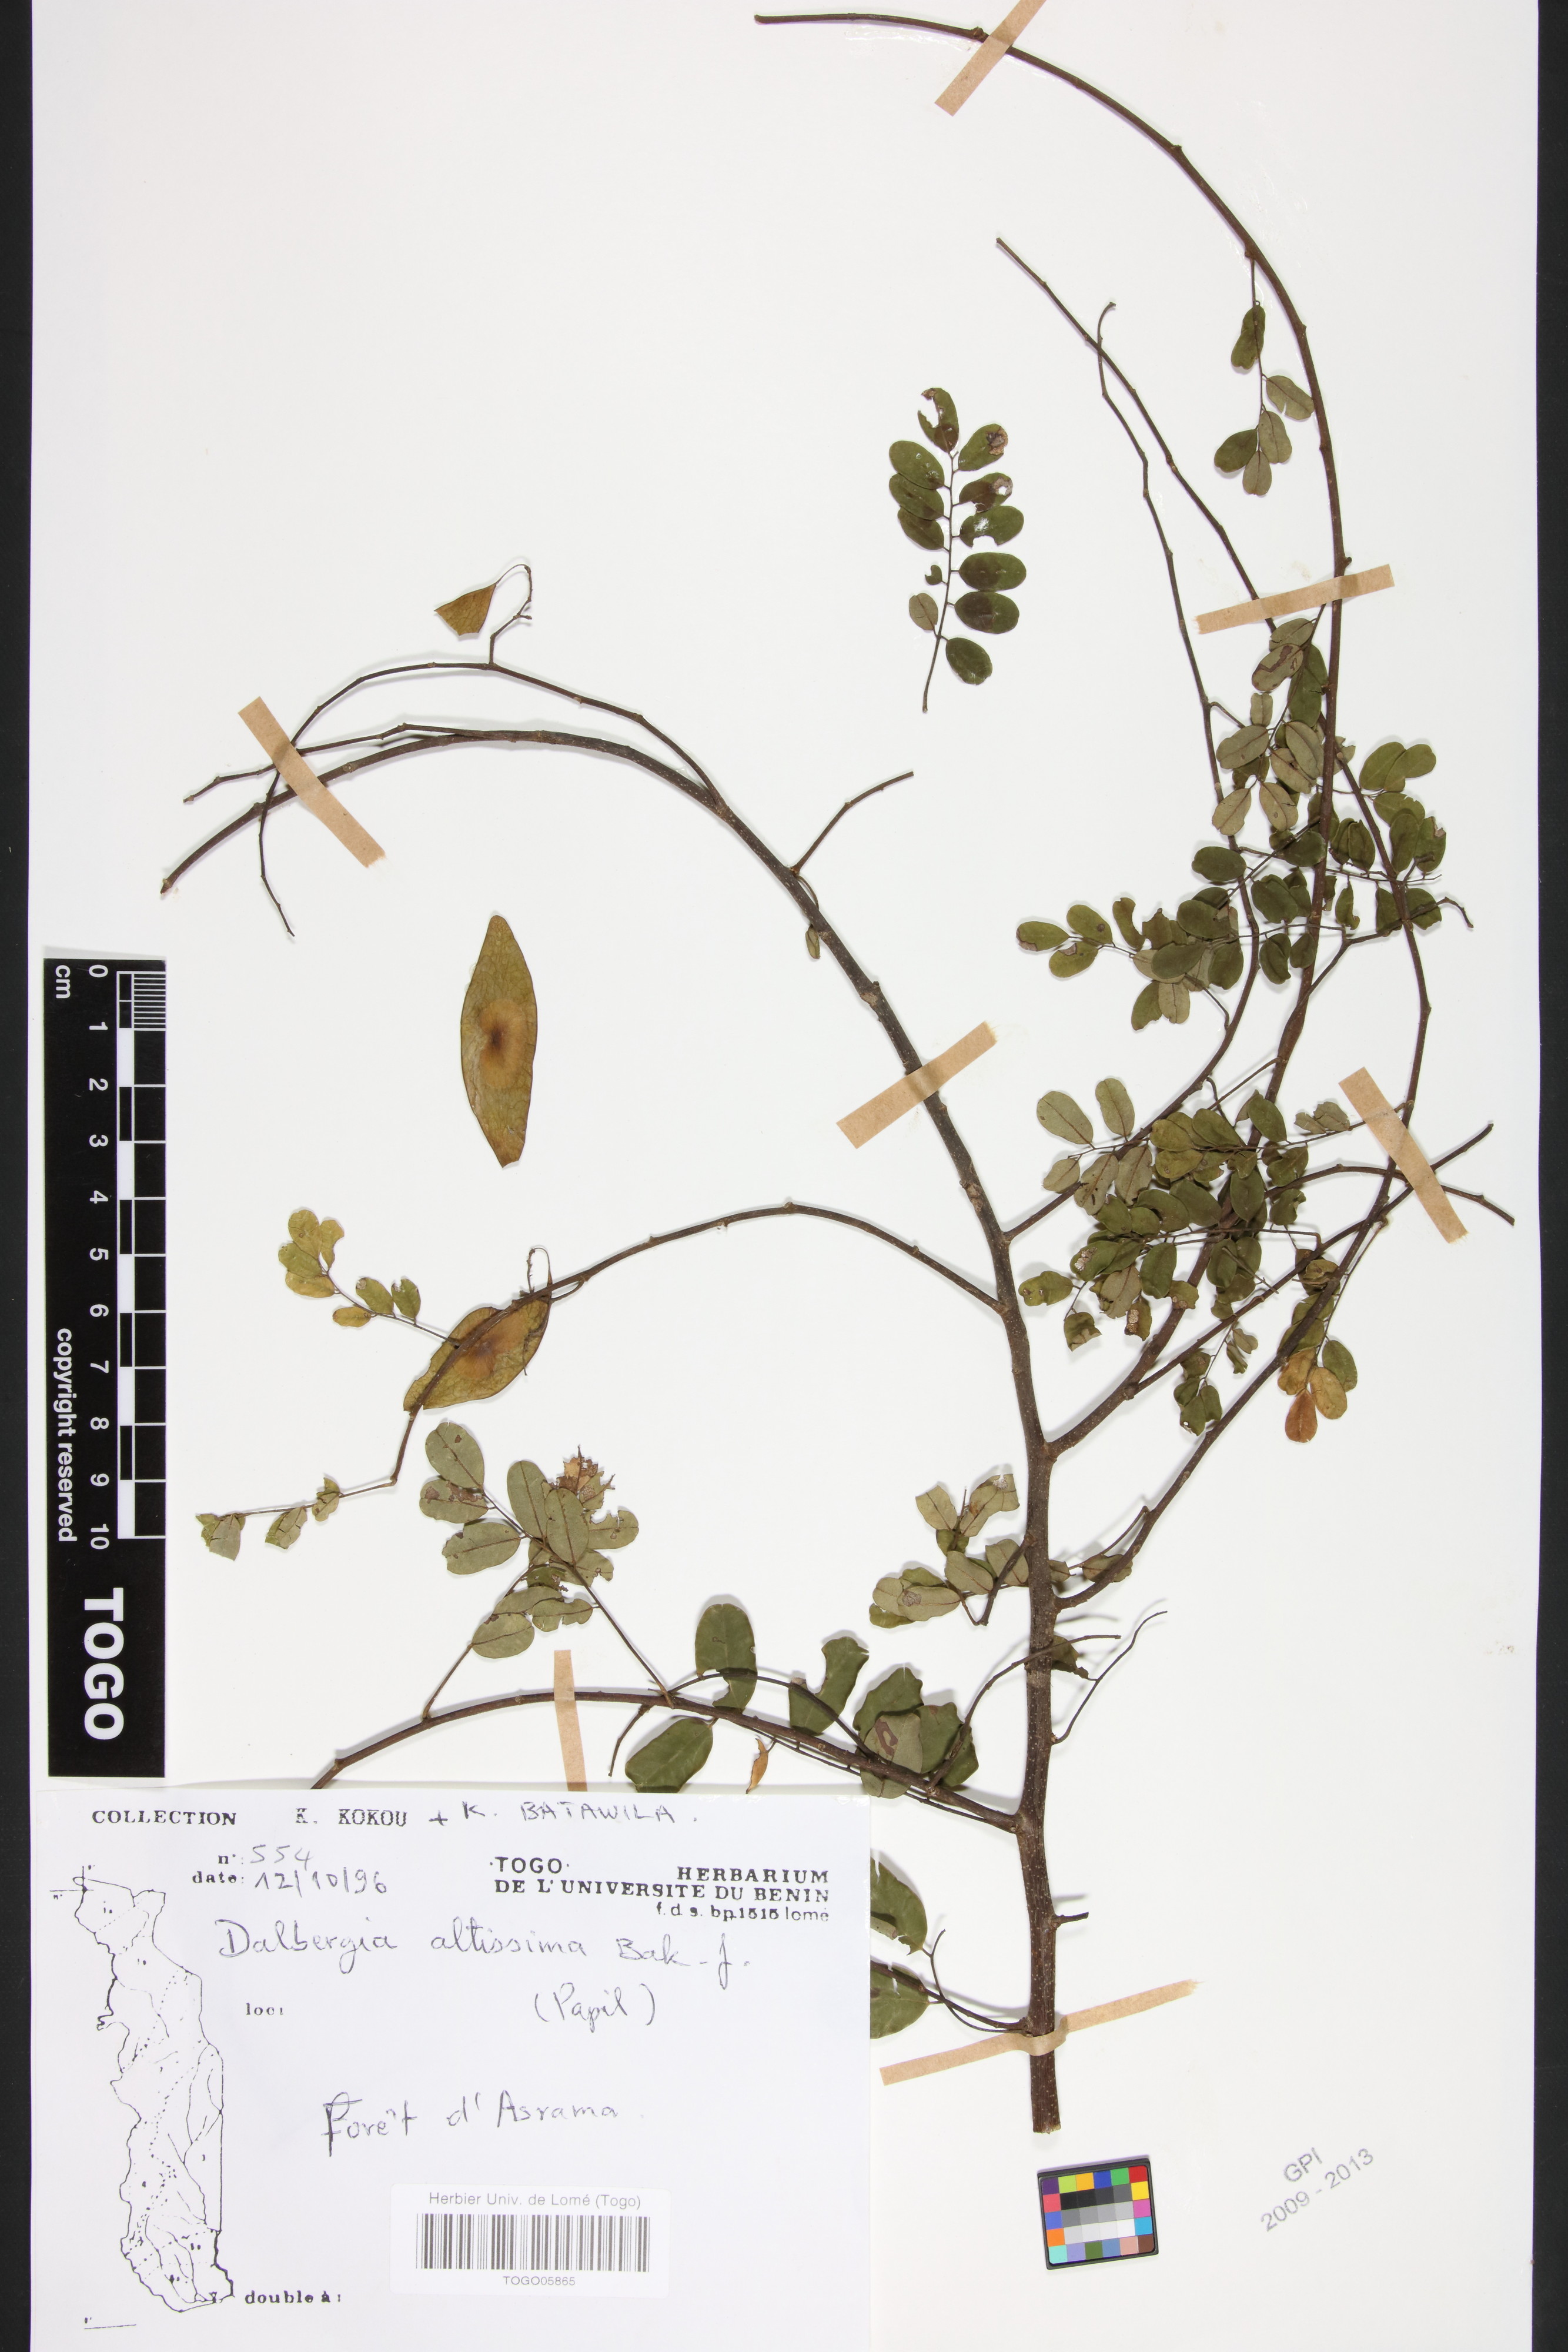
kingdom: Plantae
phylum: Tracheophyta
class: Magnoliopsida
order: Fabales
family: Fabaceae
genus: Dalbergia
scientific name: Dalbergia altissima
